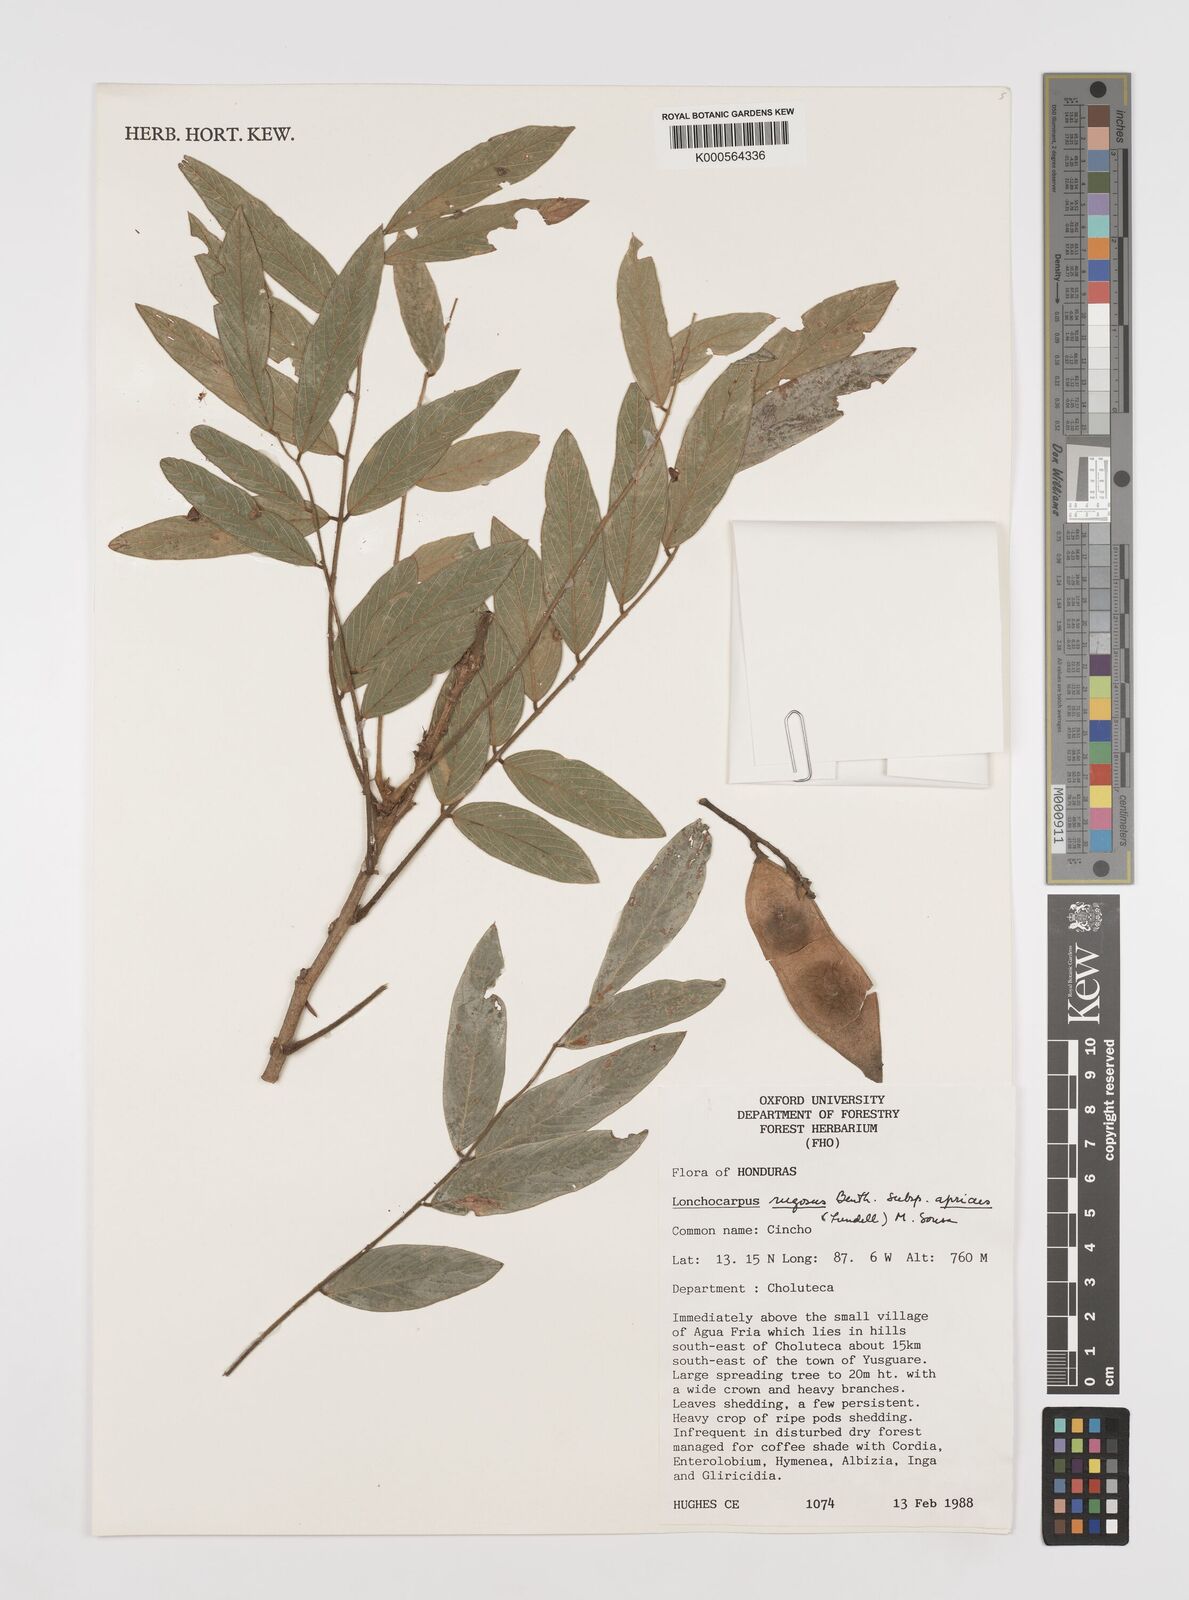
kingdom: Plantae
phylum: Tracheophyta
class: Magnoliopsida
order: Fabales
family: Fabaceae
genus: Lonchocarpus
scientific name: Lonchocarpus rugosus
